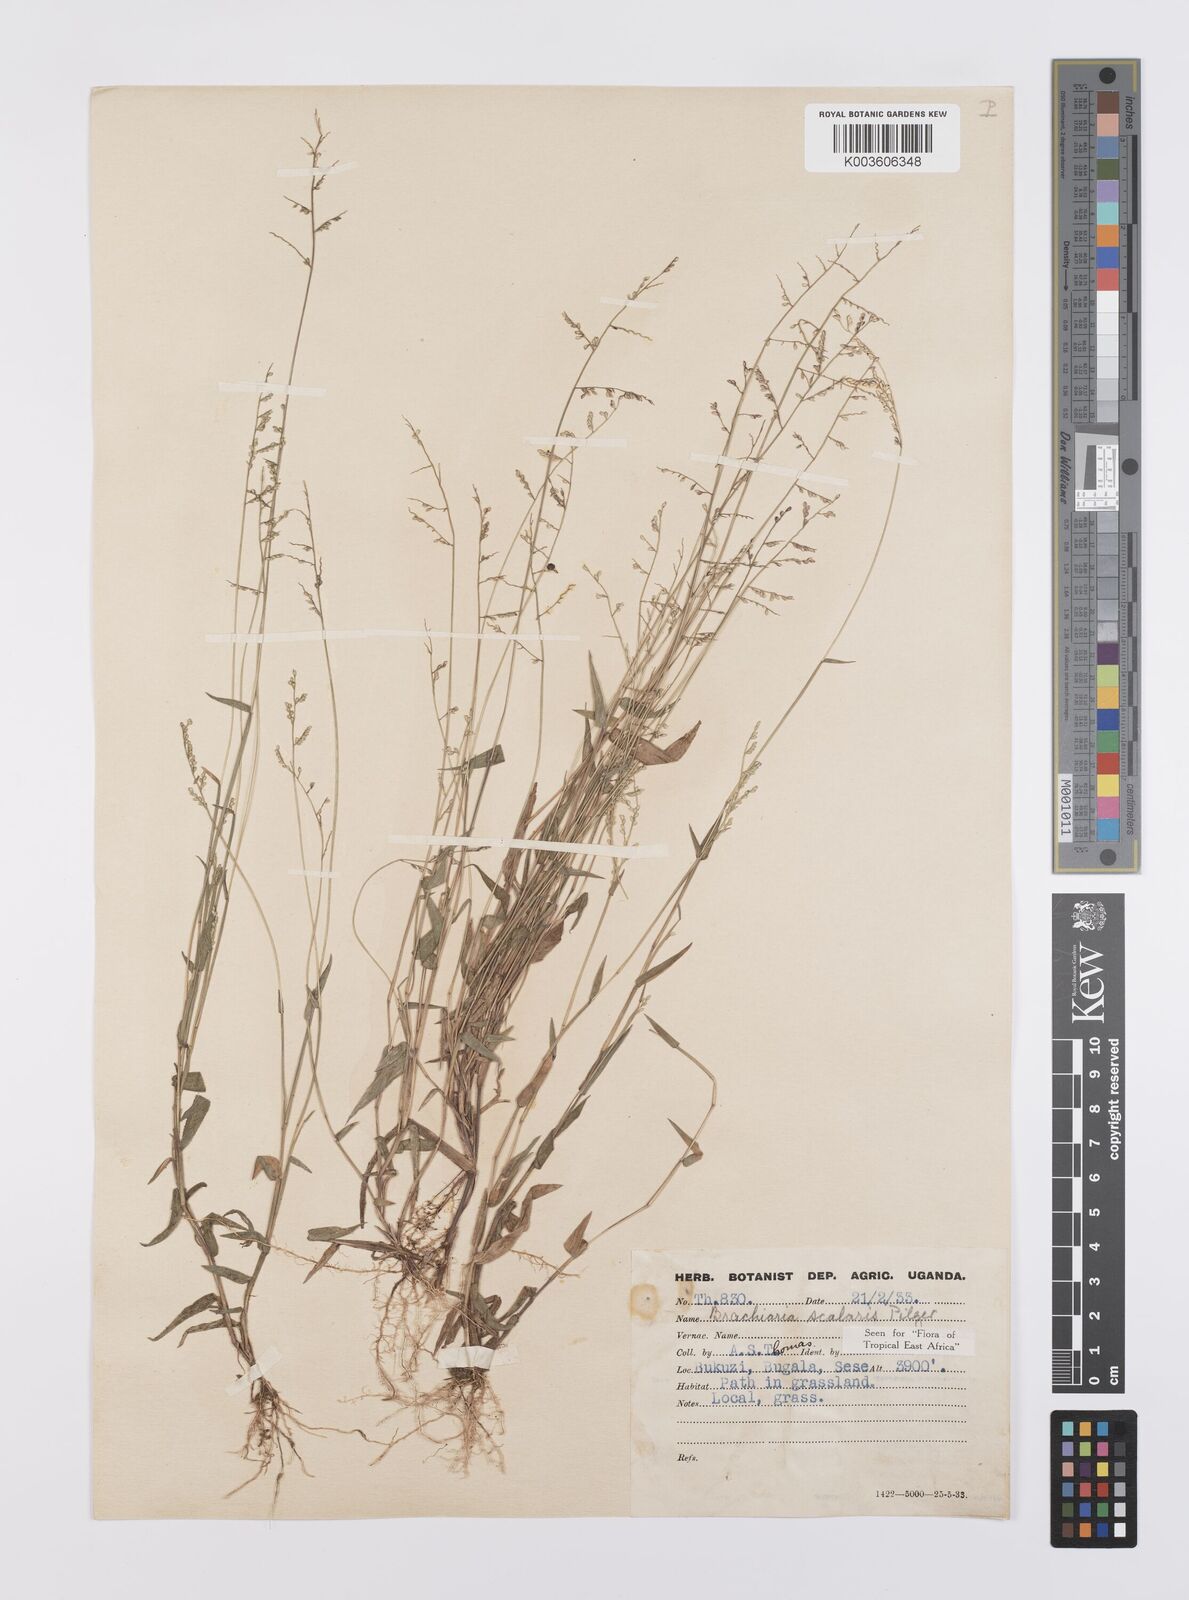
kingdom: Plantae
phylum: Tracheophyta
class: Liliopsida
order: Poales
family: Poaceae
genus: Urochloa
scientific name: Urochloa comata
